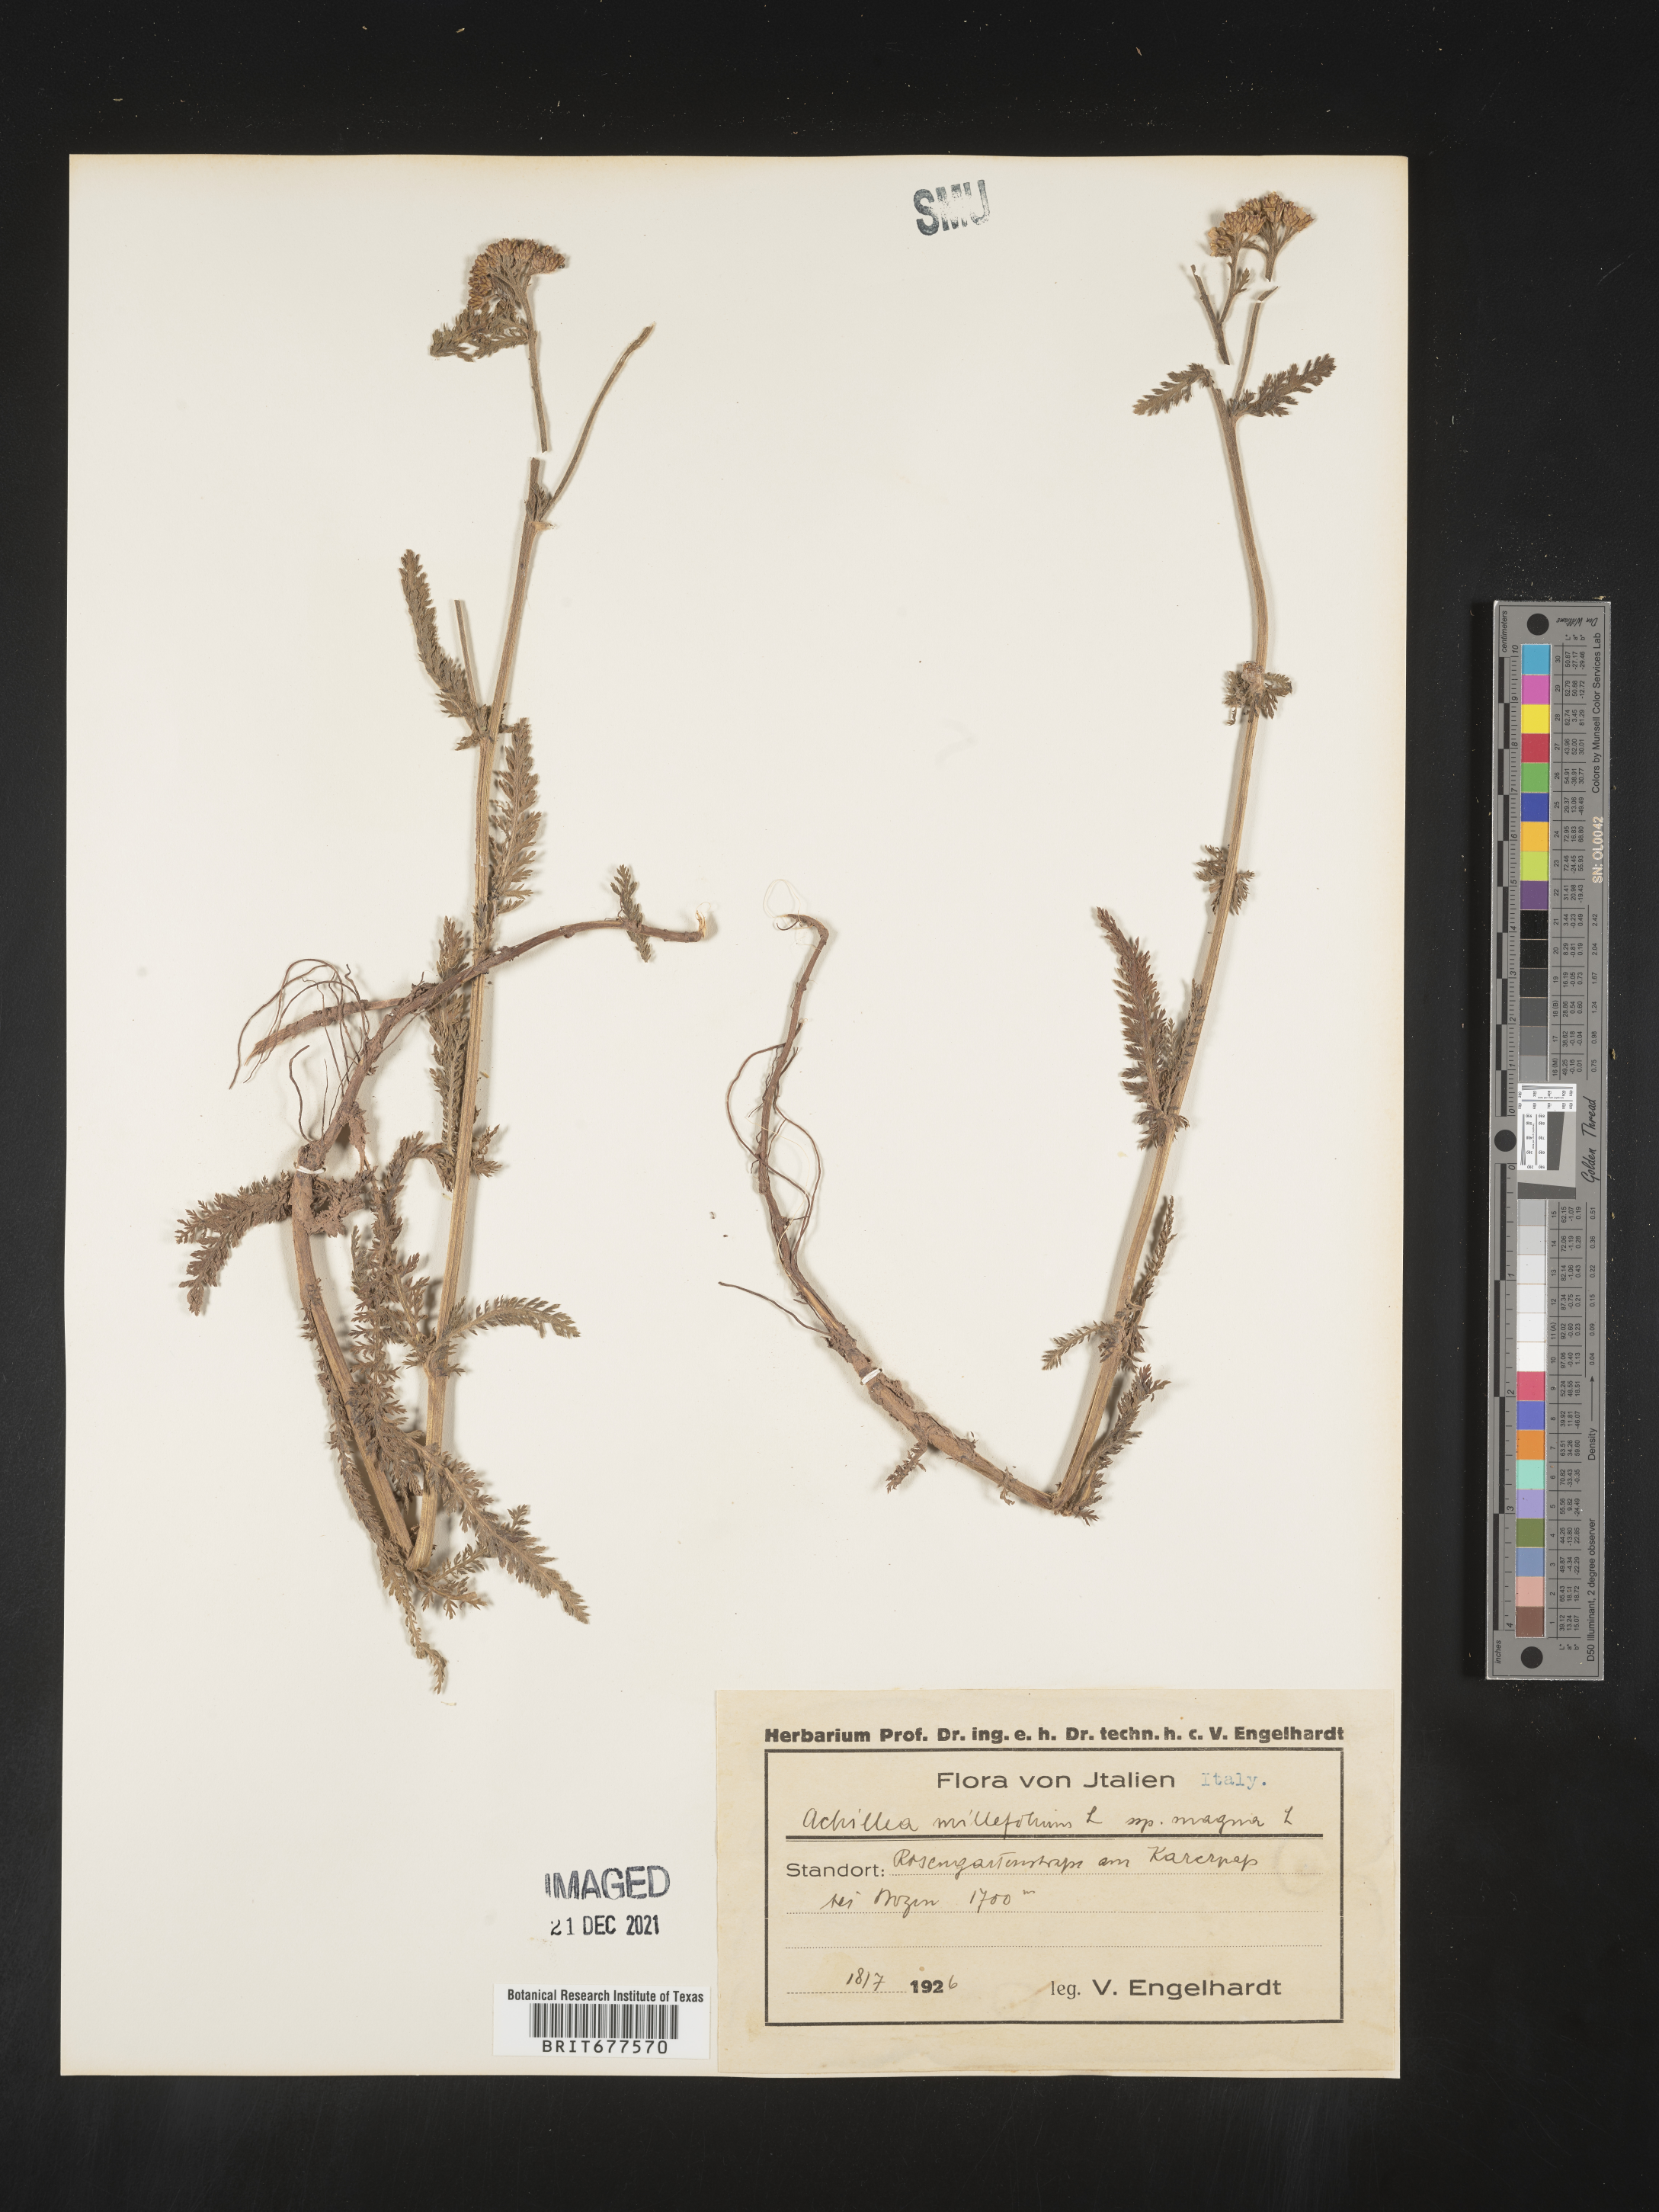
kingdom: Plantae
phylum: Tracheophyta
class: Magnoliopsida
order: Asterales
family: Asteraceae
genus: Achillea
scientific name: Achillea millefolium
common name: Yarrow
